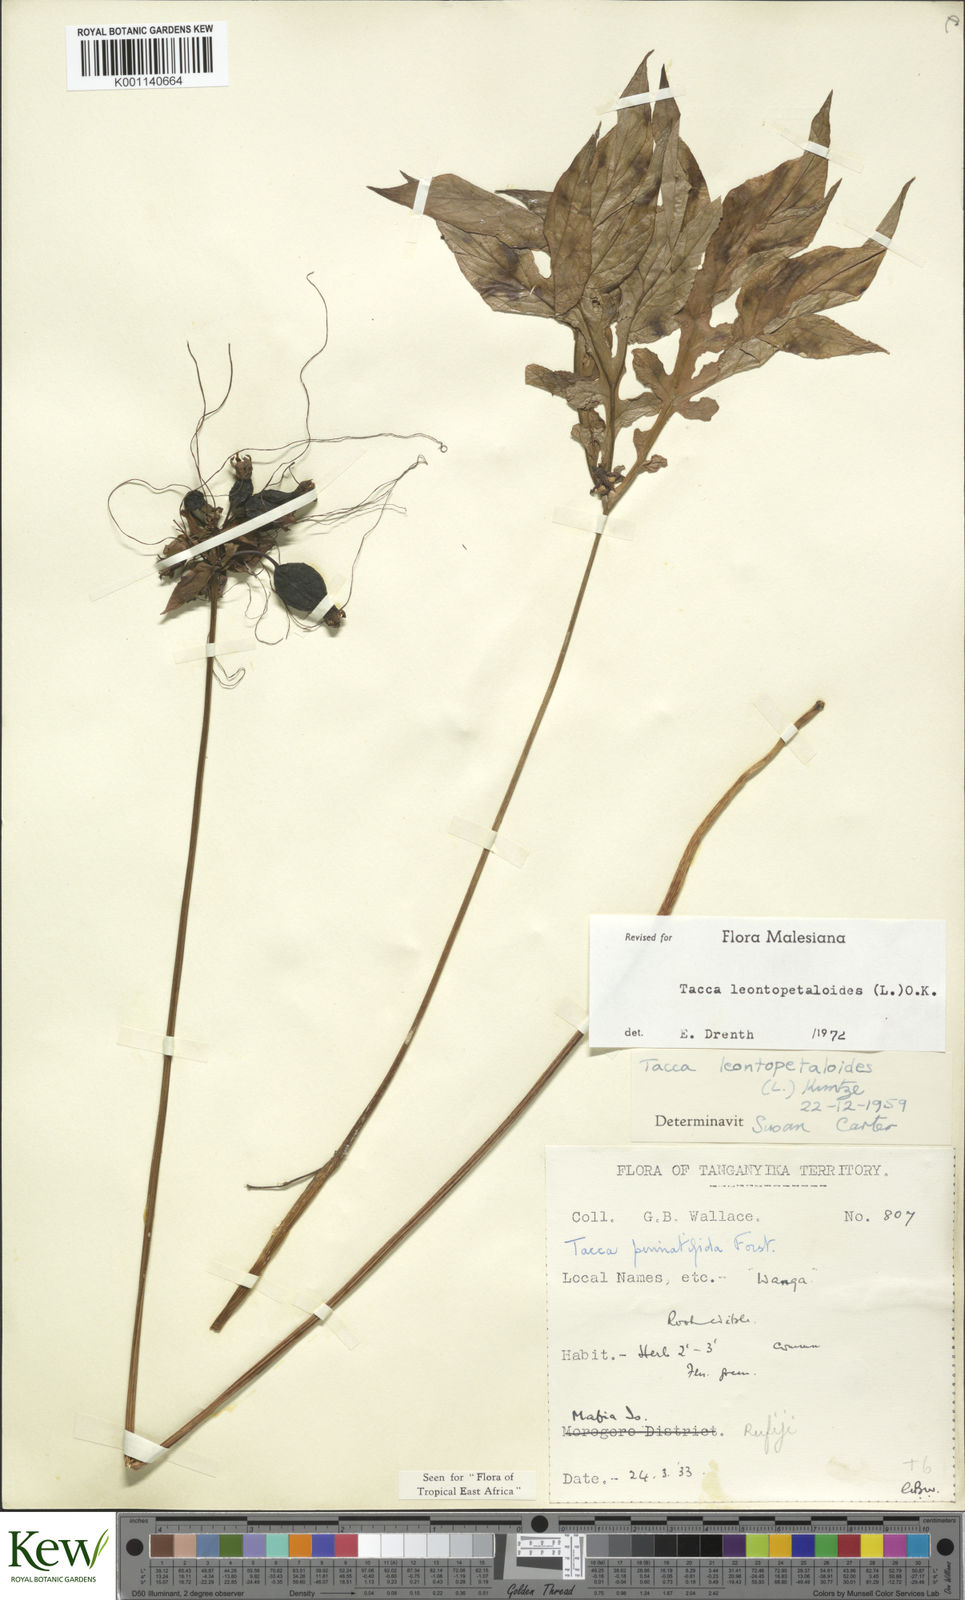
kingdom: Plantae
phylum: Tracheophyta
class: Liliopsida
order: Dioscoreales
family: Dioscoreaceae
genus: Tacca
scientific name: Tacca leontopetaloides
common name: Arrowroot
